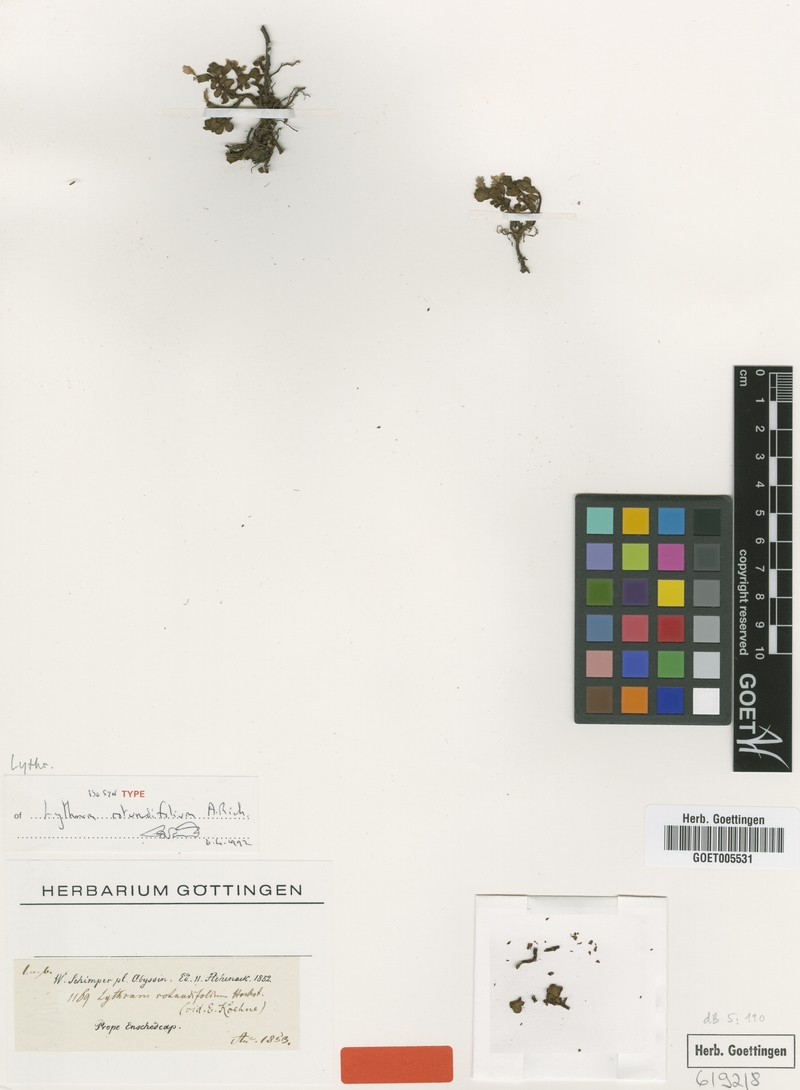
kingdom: Plantae
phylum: Tracheophyta
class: Magnoliopsida
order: Myrtales
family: Lythraceae
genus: Lythrum
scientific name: Lythrum rotundifolium
